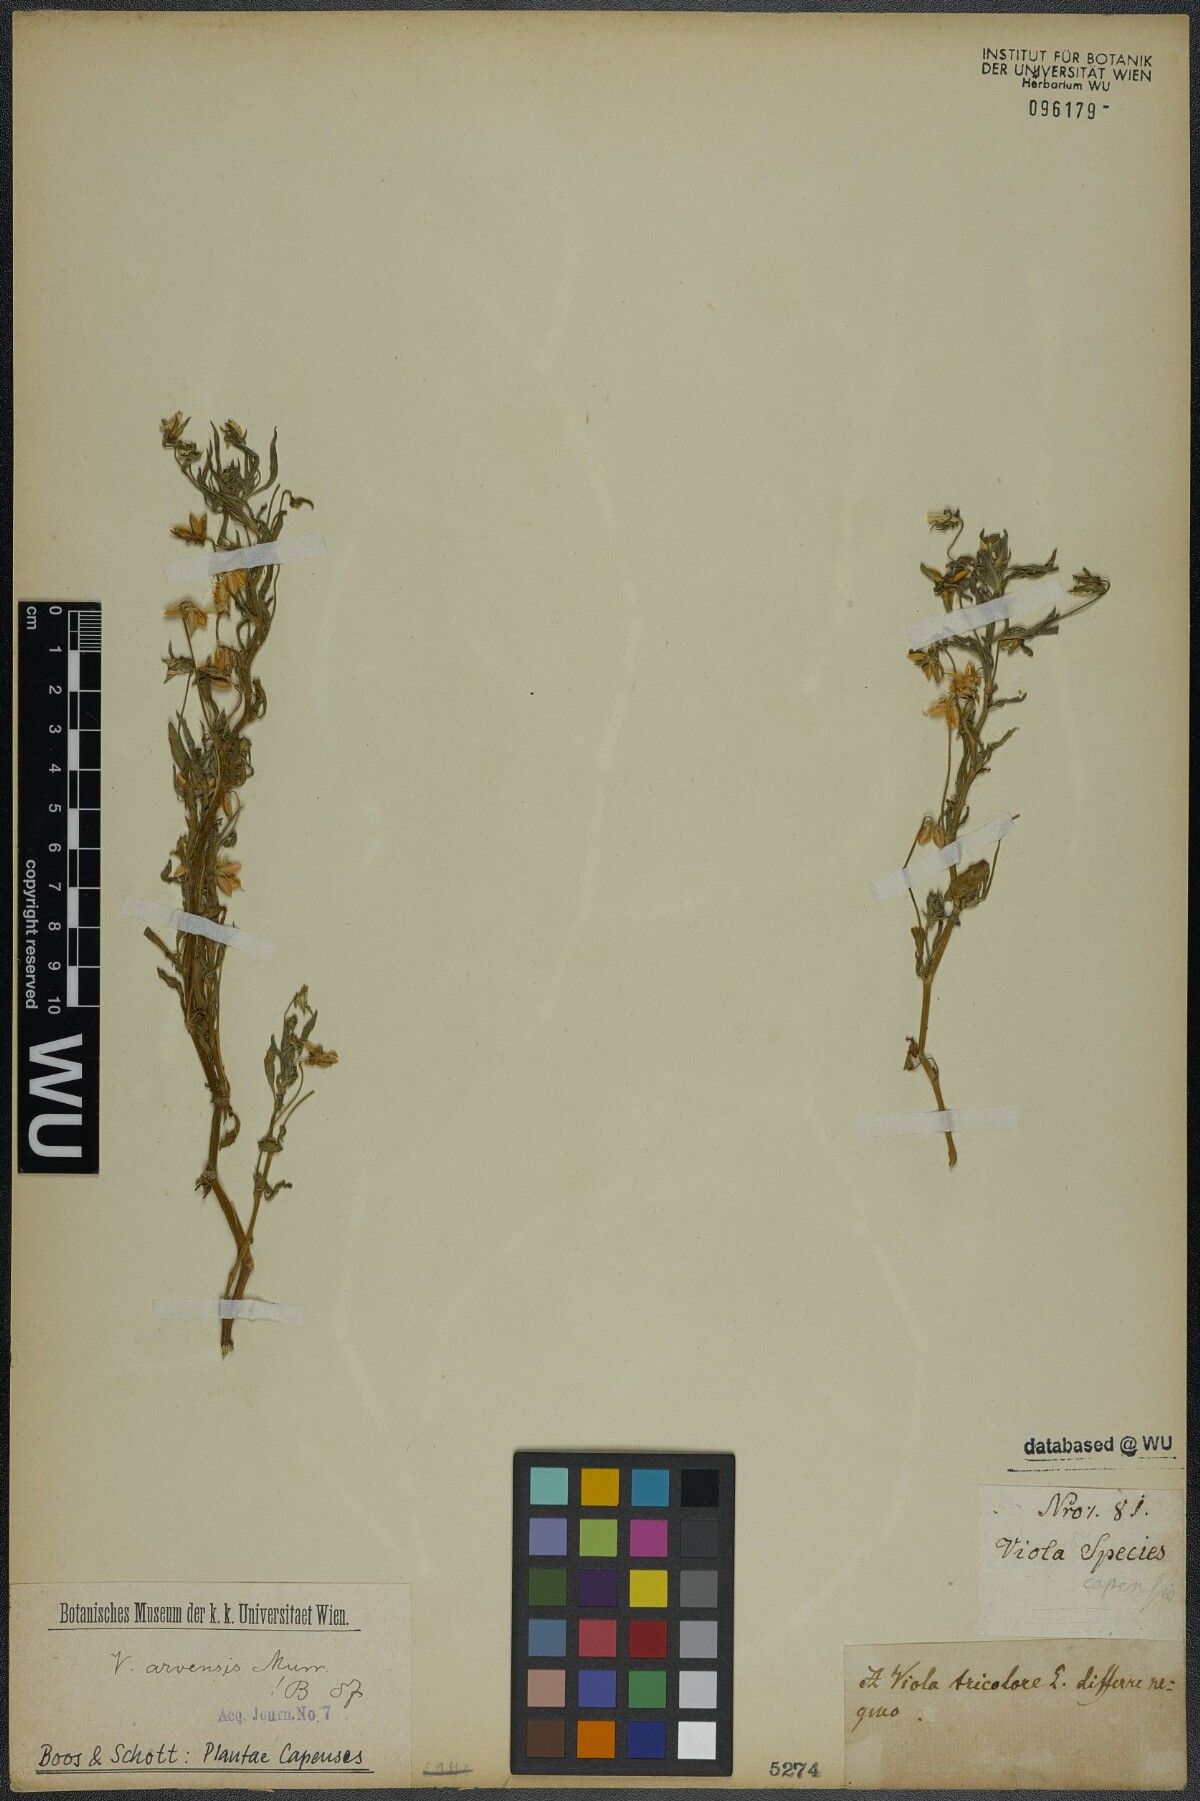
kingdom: Plantae
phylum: Tracheophyta
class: Magnoliopsida
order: Malpighiales
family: Violaceae
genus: Viola
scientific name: Viola arvensis
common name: Field pansy
